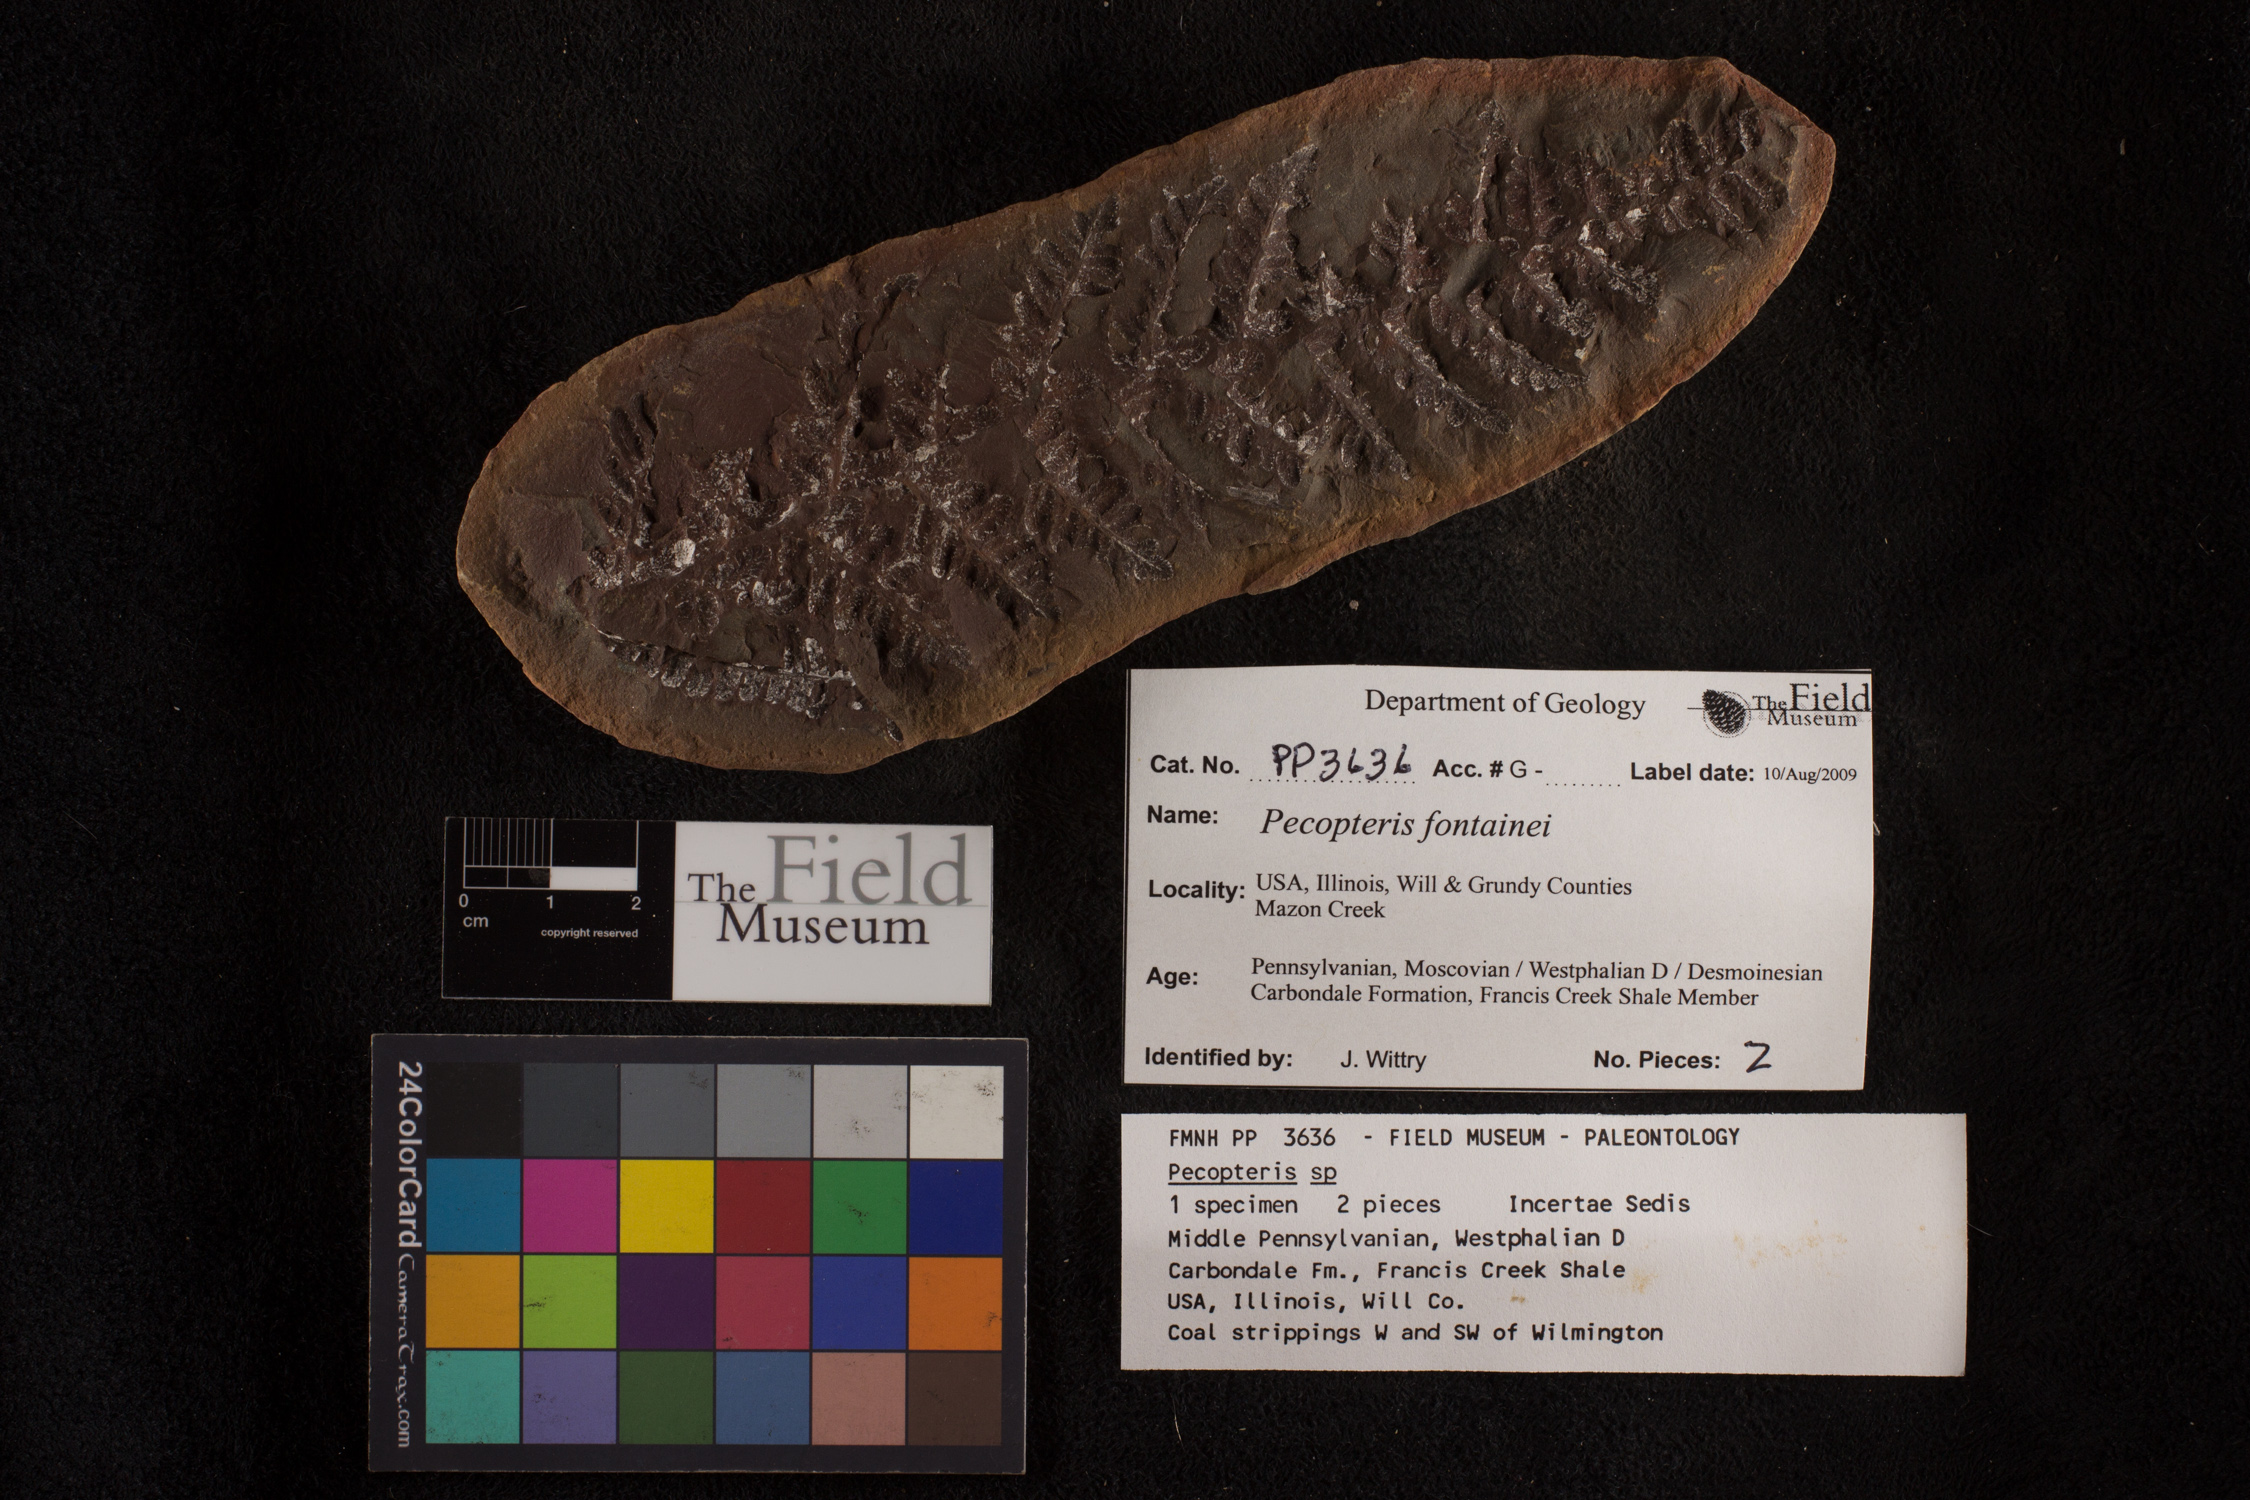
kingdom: Plantae
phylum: Tracheophyta
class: Polypodiopsida
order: Marattiales
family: Asterothecaceae
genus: Pecopteris
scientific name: Pecopteris
